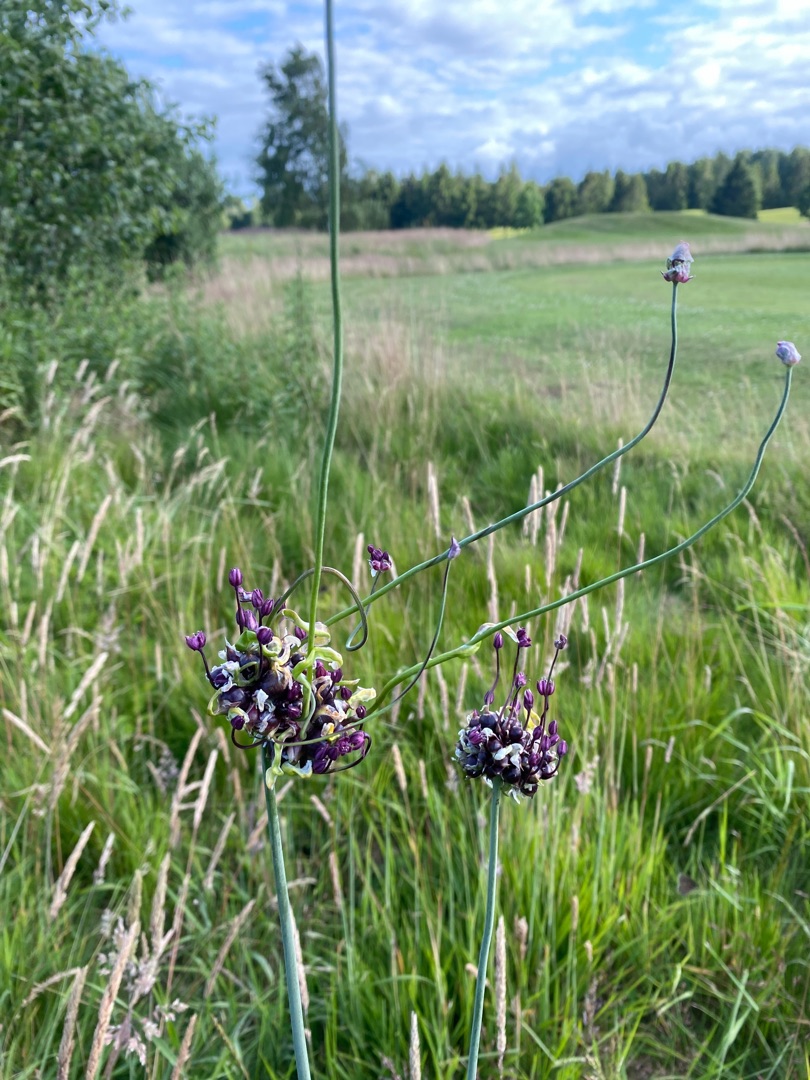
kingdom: Plantae
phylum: Tracheophyta
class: Liliopsida
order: Asparagales
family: Amaryllidaceae
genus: Allium
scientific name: Allium scorodoprasum
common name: Skov-løg
